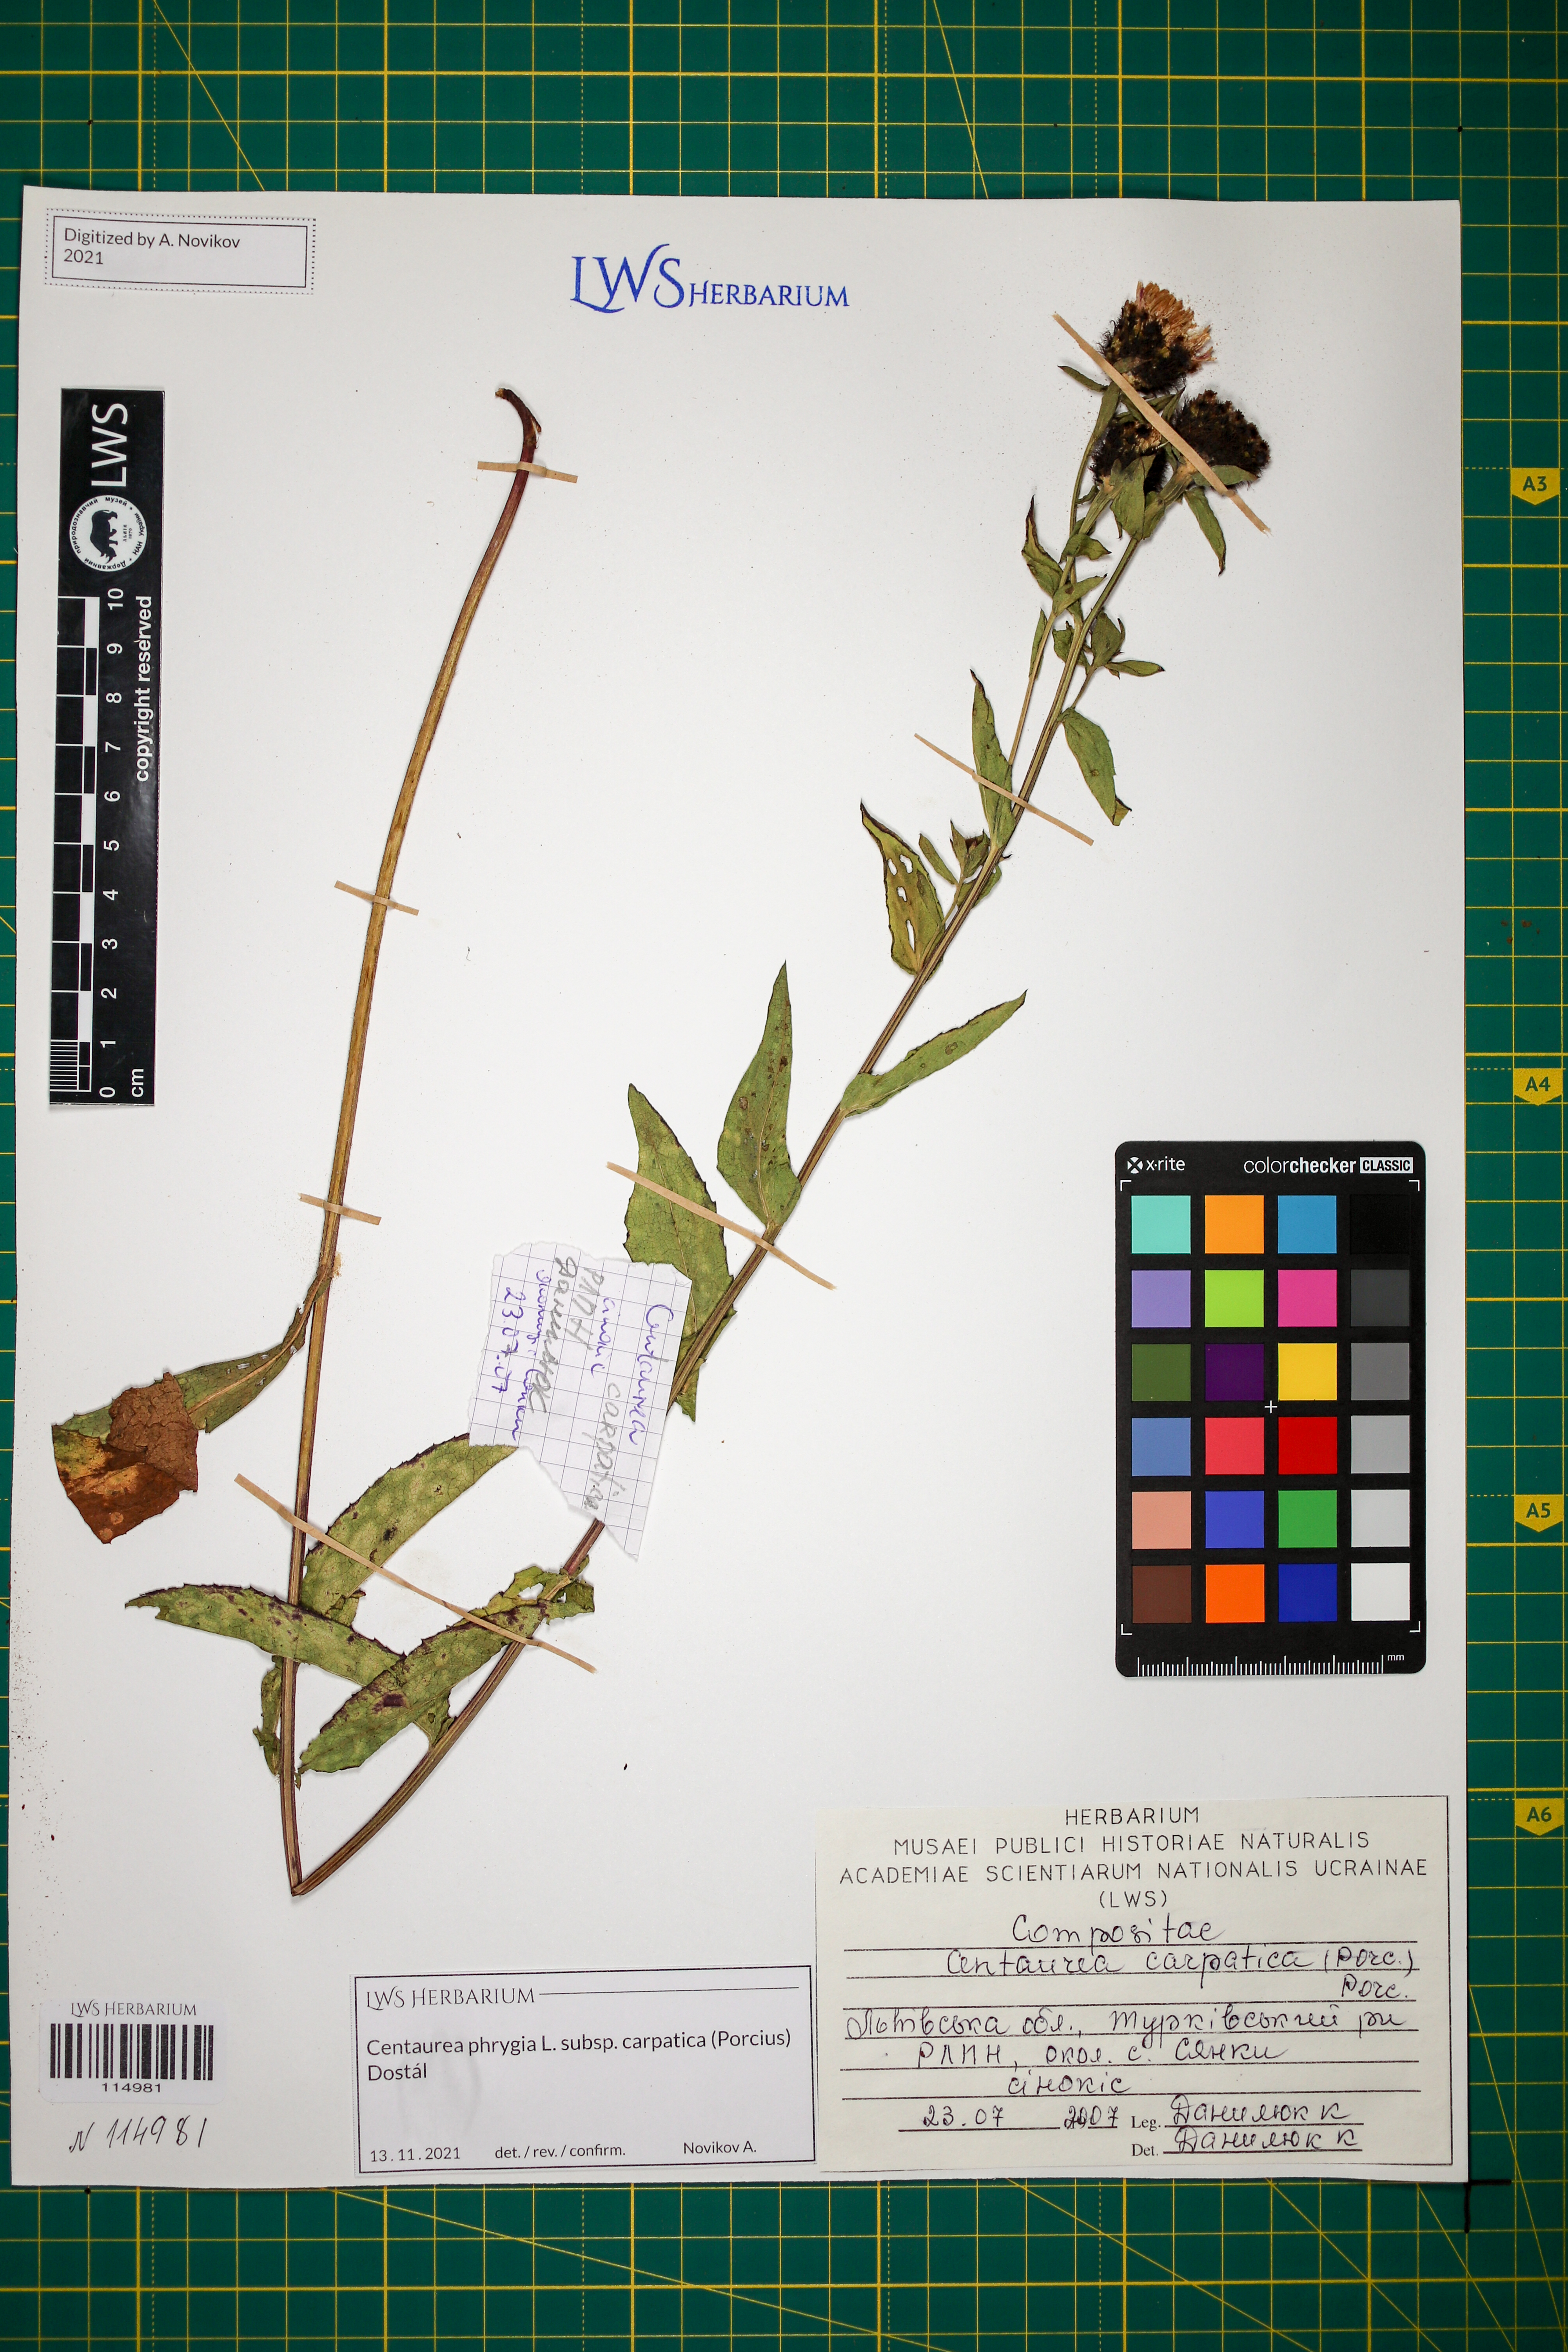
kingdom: Plantae
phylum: Tracheophyta
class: Magnoliopsida
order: Asterales
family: Asteraceae
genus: Centaurea
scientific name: Centaurea phrygia
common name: Wig knapweed
